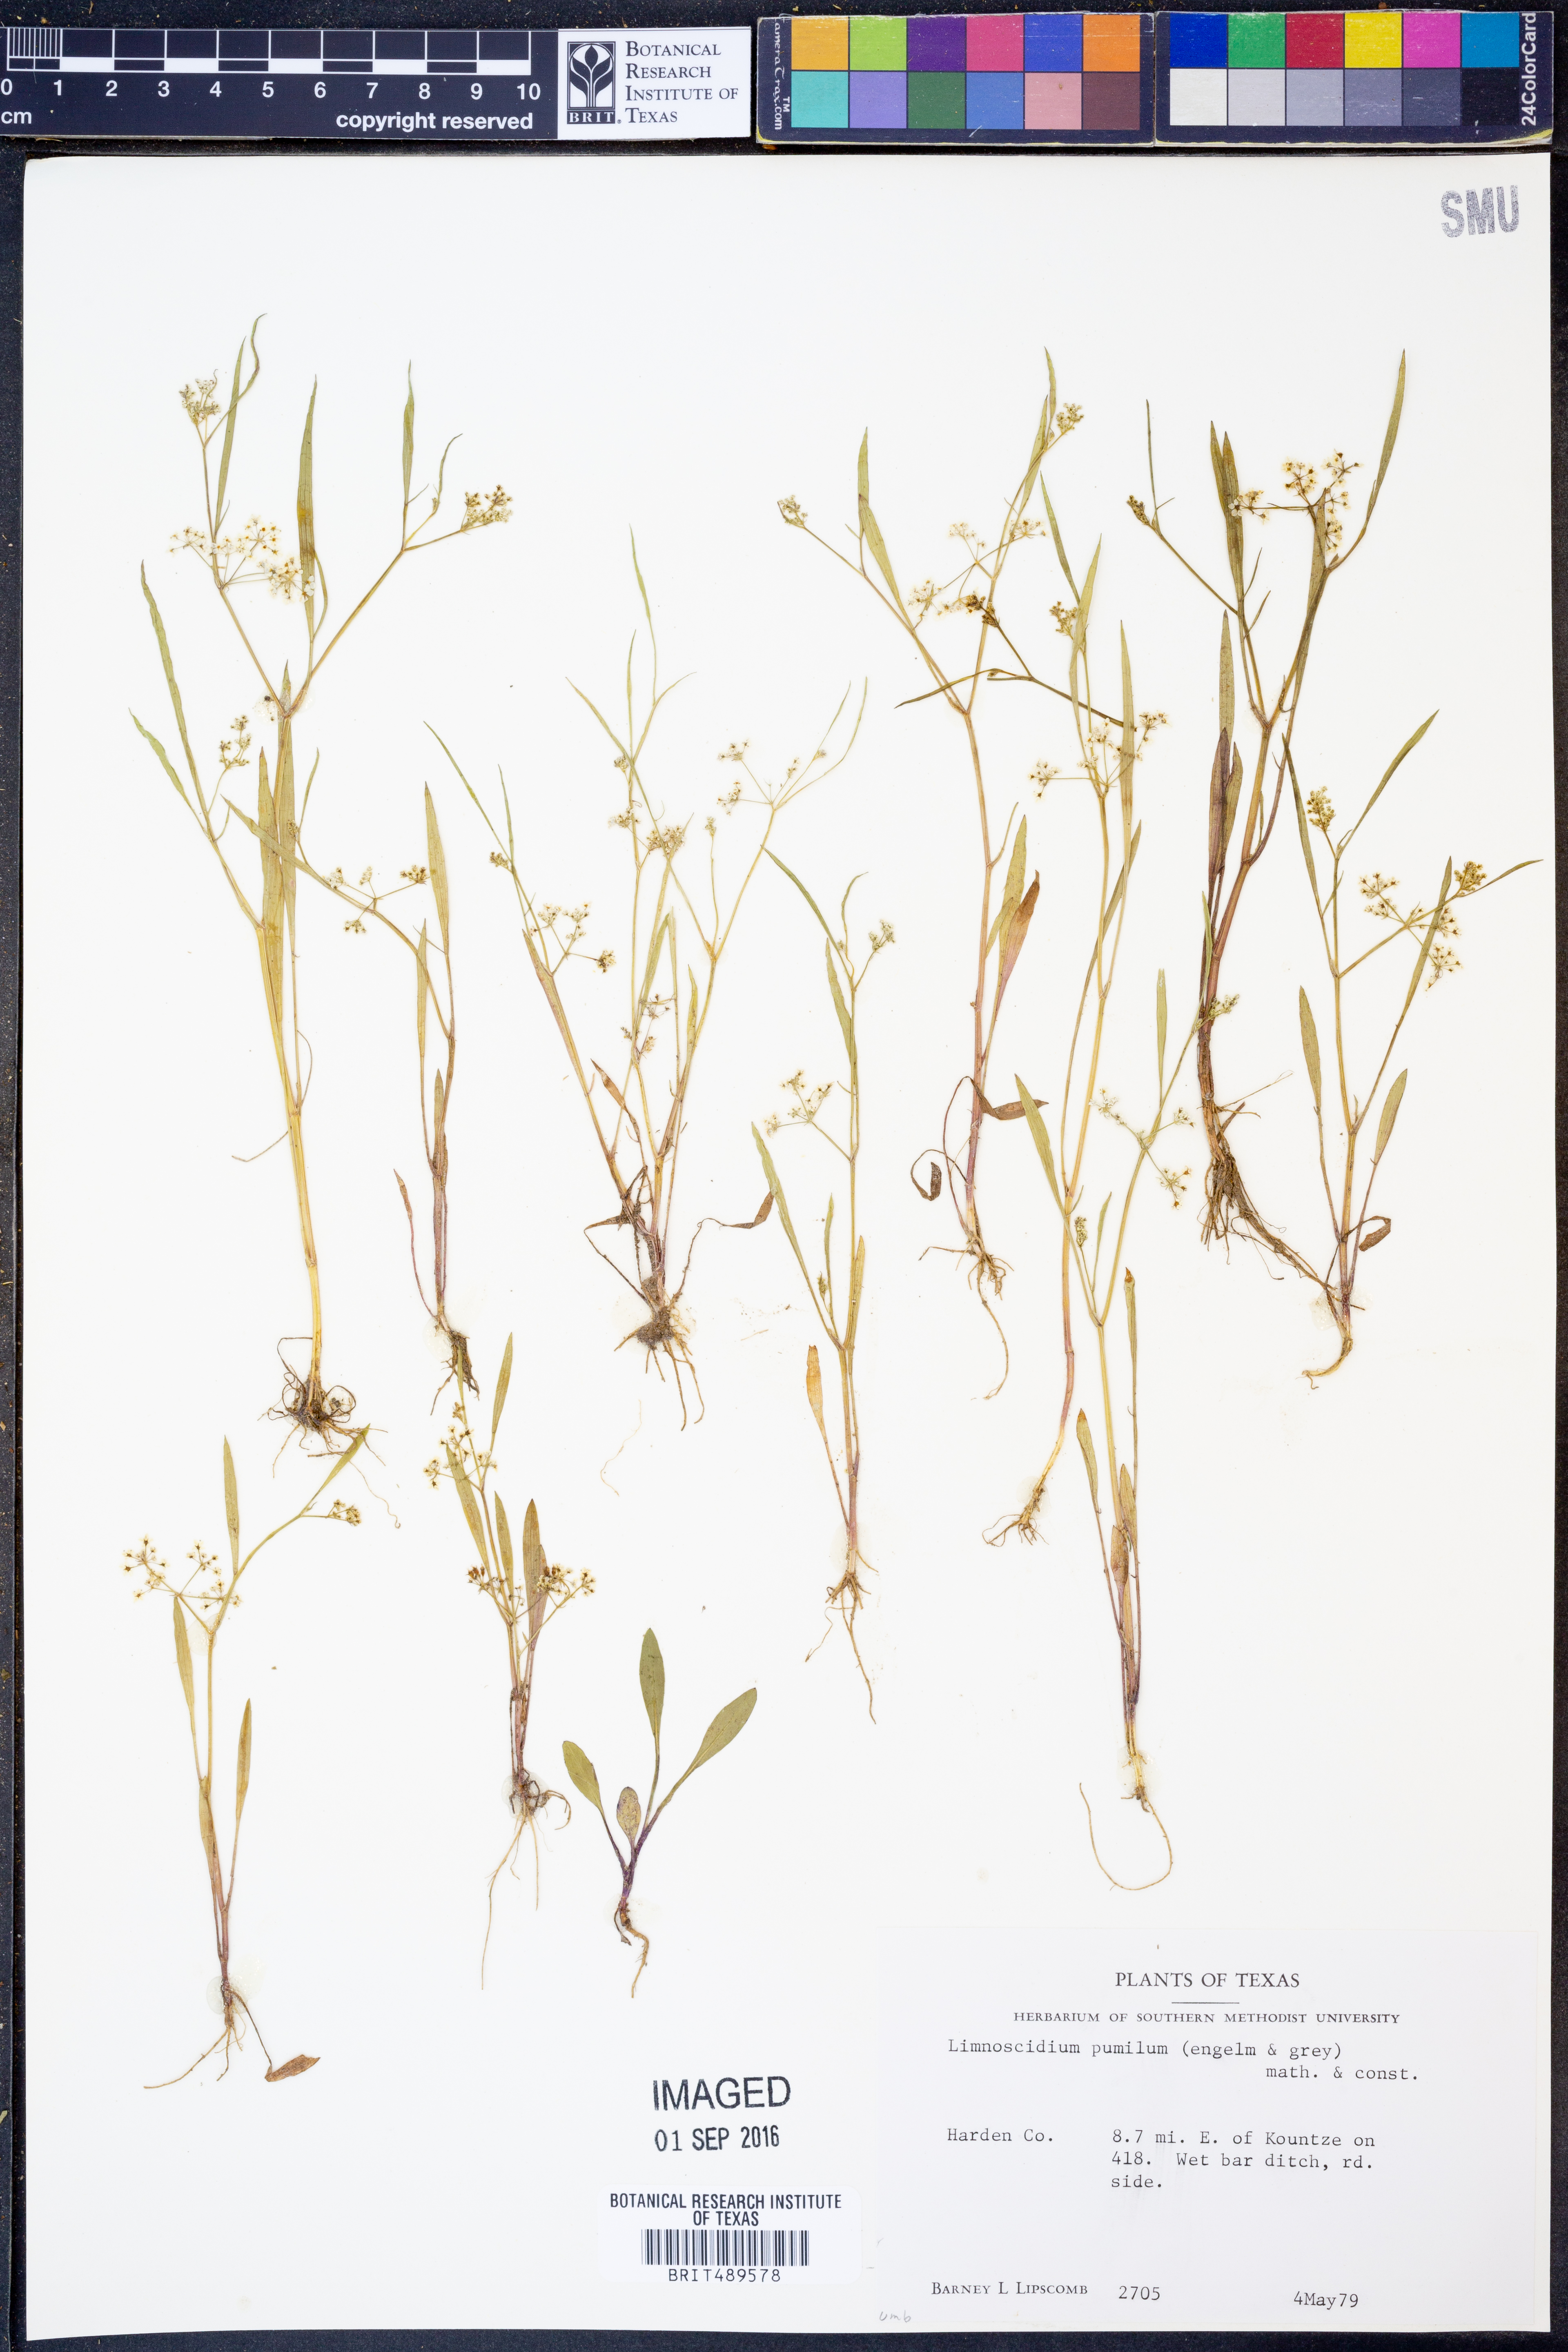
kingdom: Plantae
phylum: Tracheophyta
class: Magnoliopsida
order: Apiales
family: Apiaceae
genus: Limnosciadium
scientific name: Limnosciadium pinnatum
